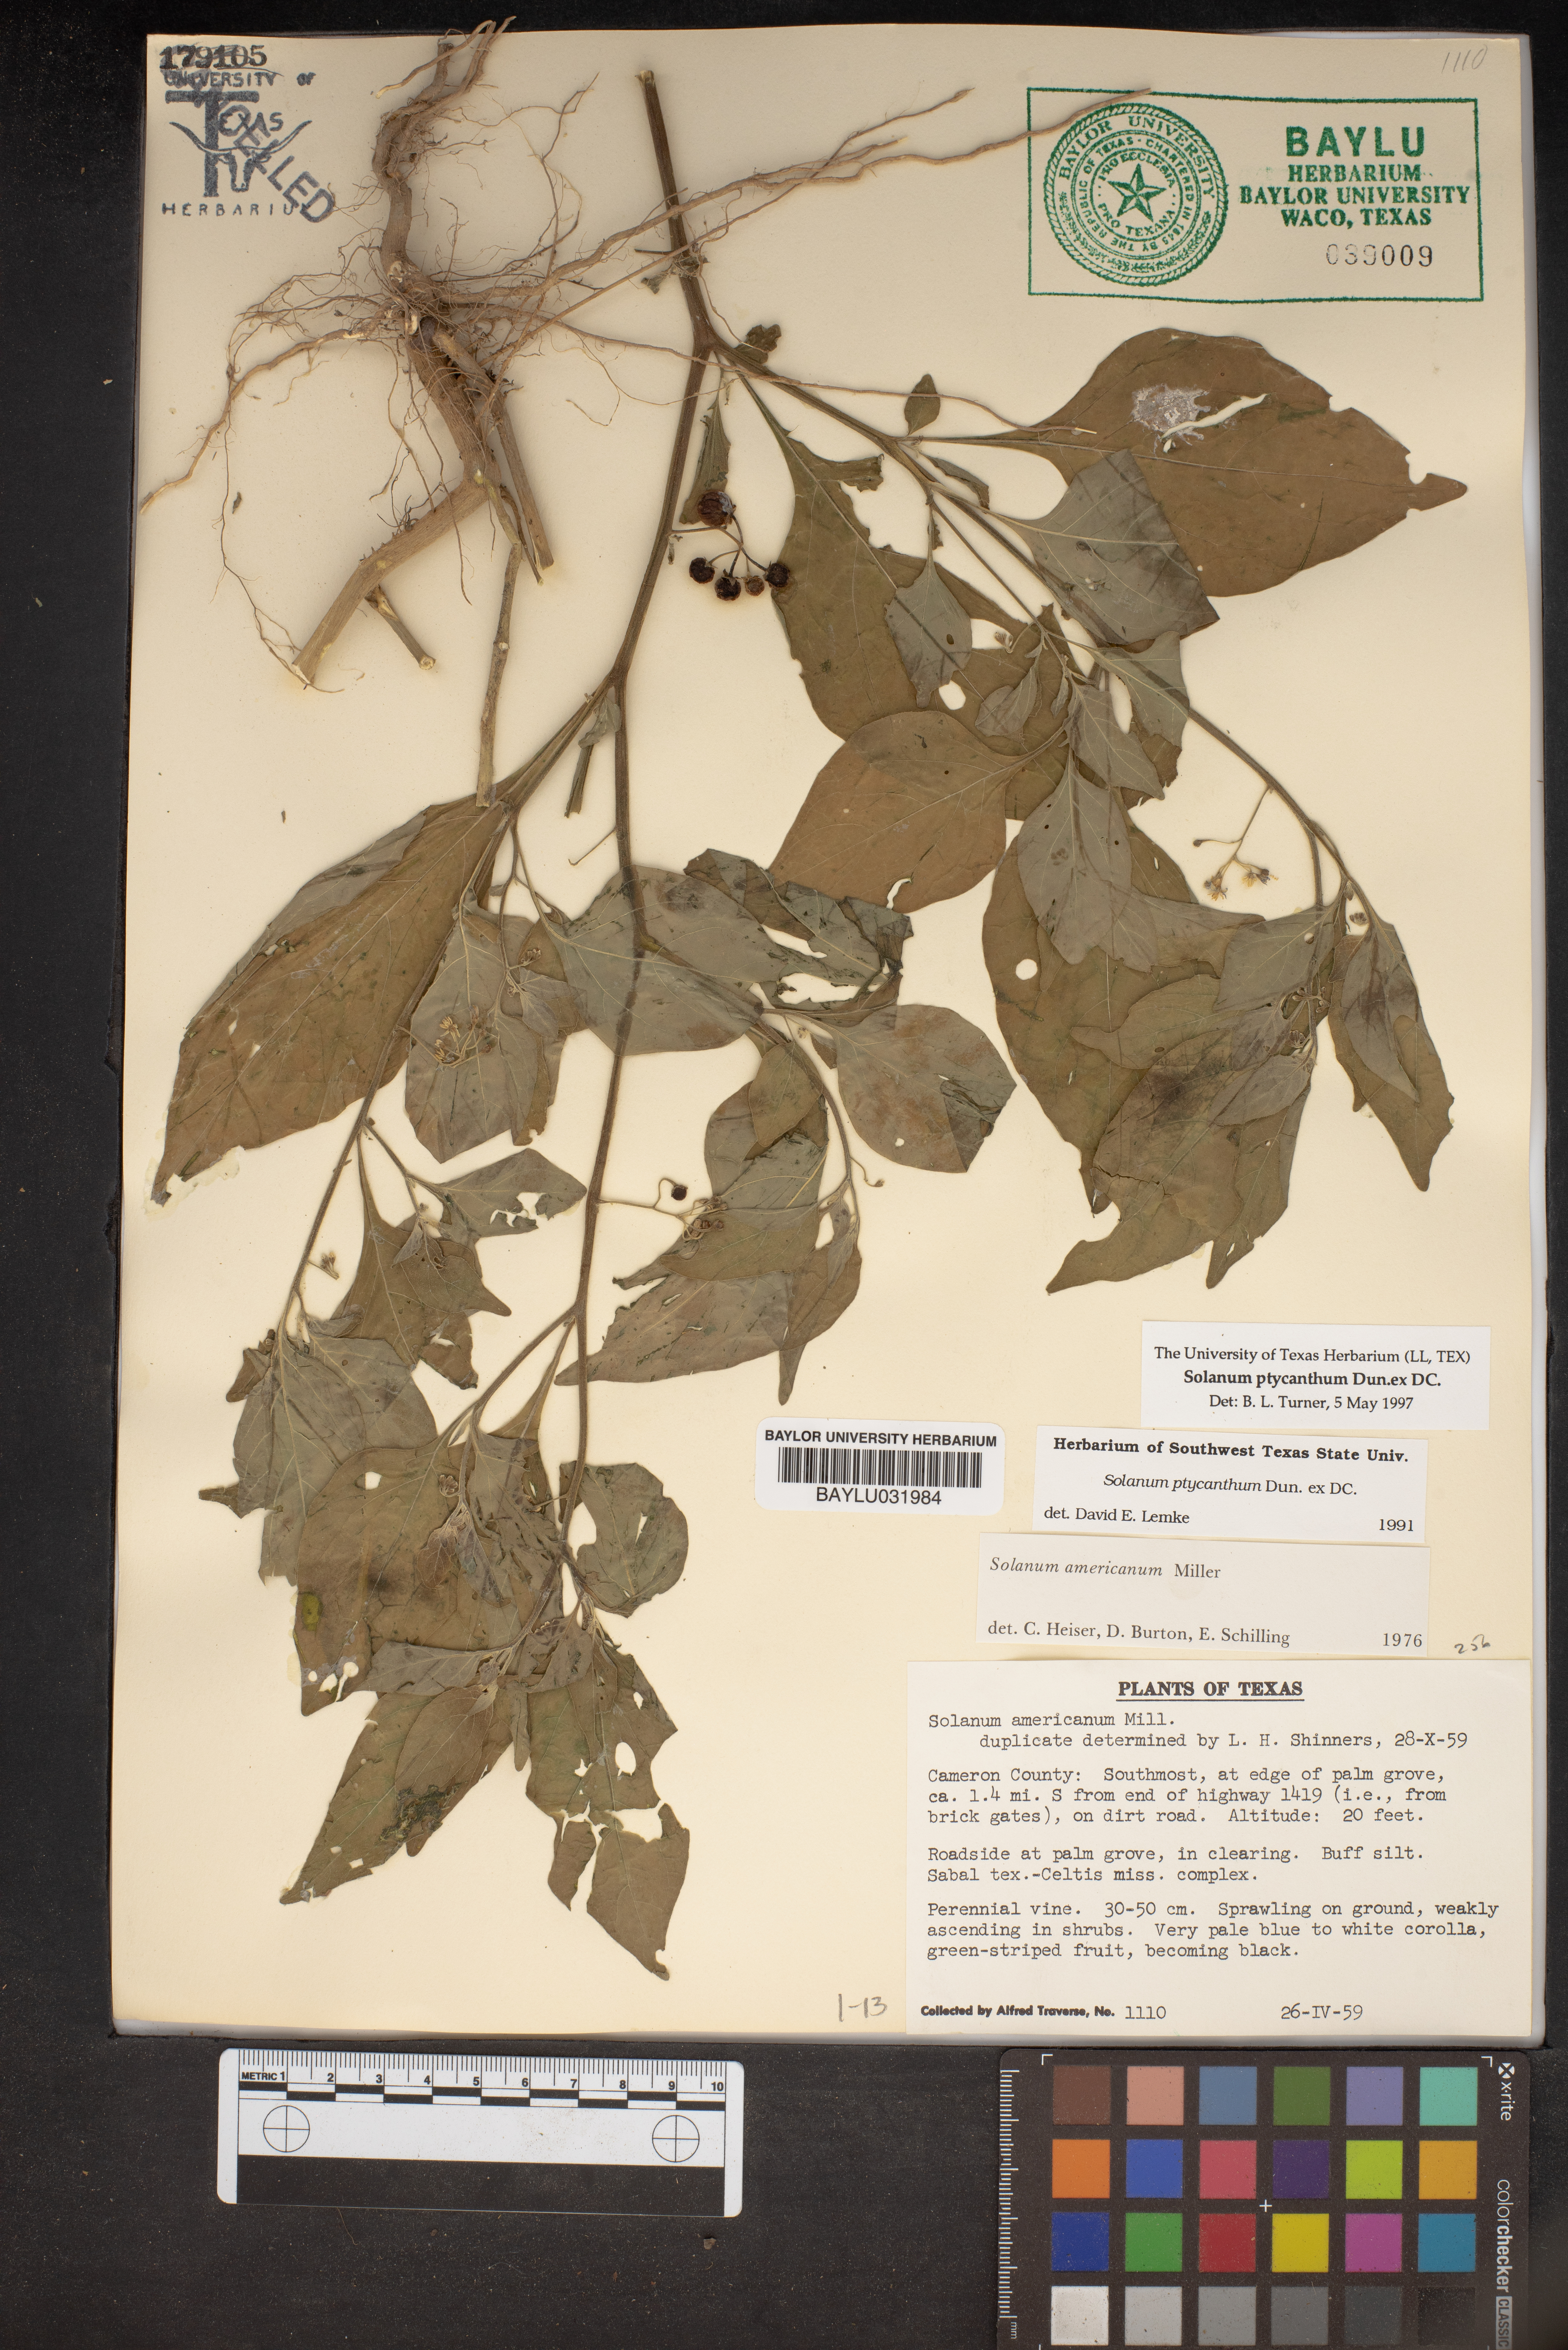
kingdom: Plantae
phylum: Tracheophyta
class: Magnoliopsida
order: Solanales
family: Solanaceae
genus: Solanum
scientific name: Solanum americanum
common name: American black nightshade
